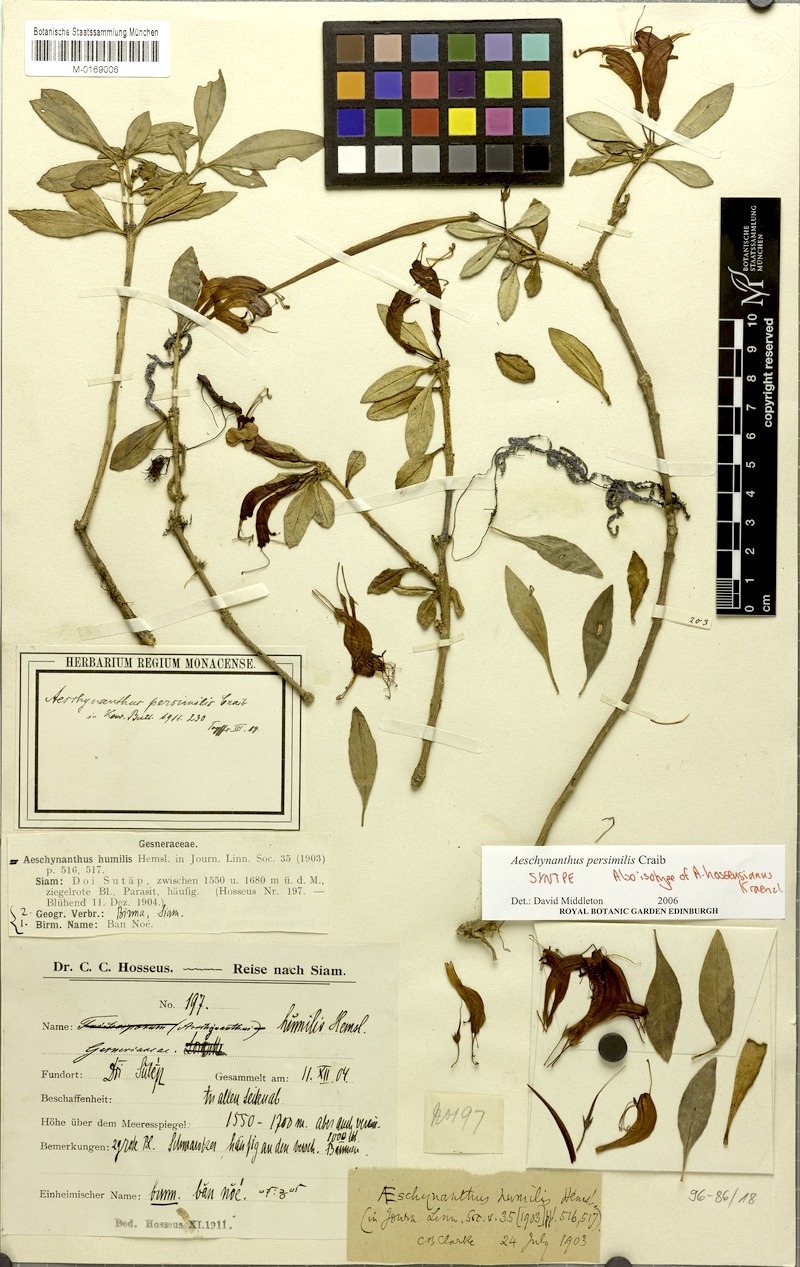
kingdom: Plantae
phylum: Tracheophyta
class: Magnoliopsida
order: Lamiales
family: Gesneriaceae
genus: Aeschynanthus
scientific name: Aeschynanthus andersonii
